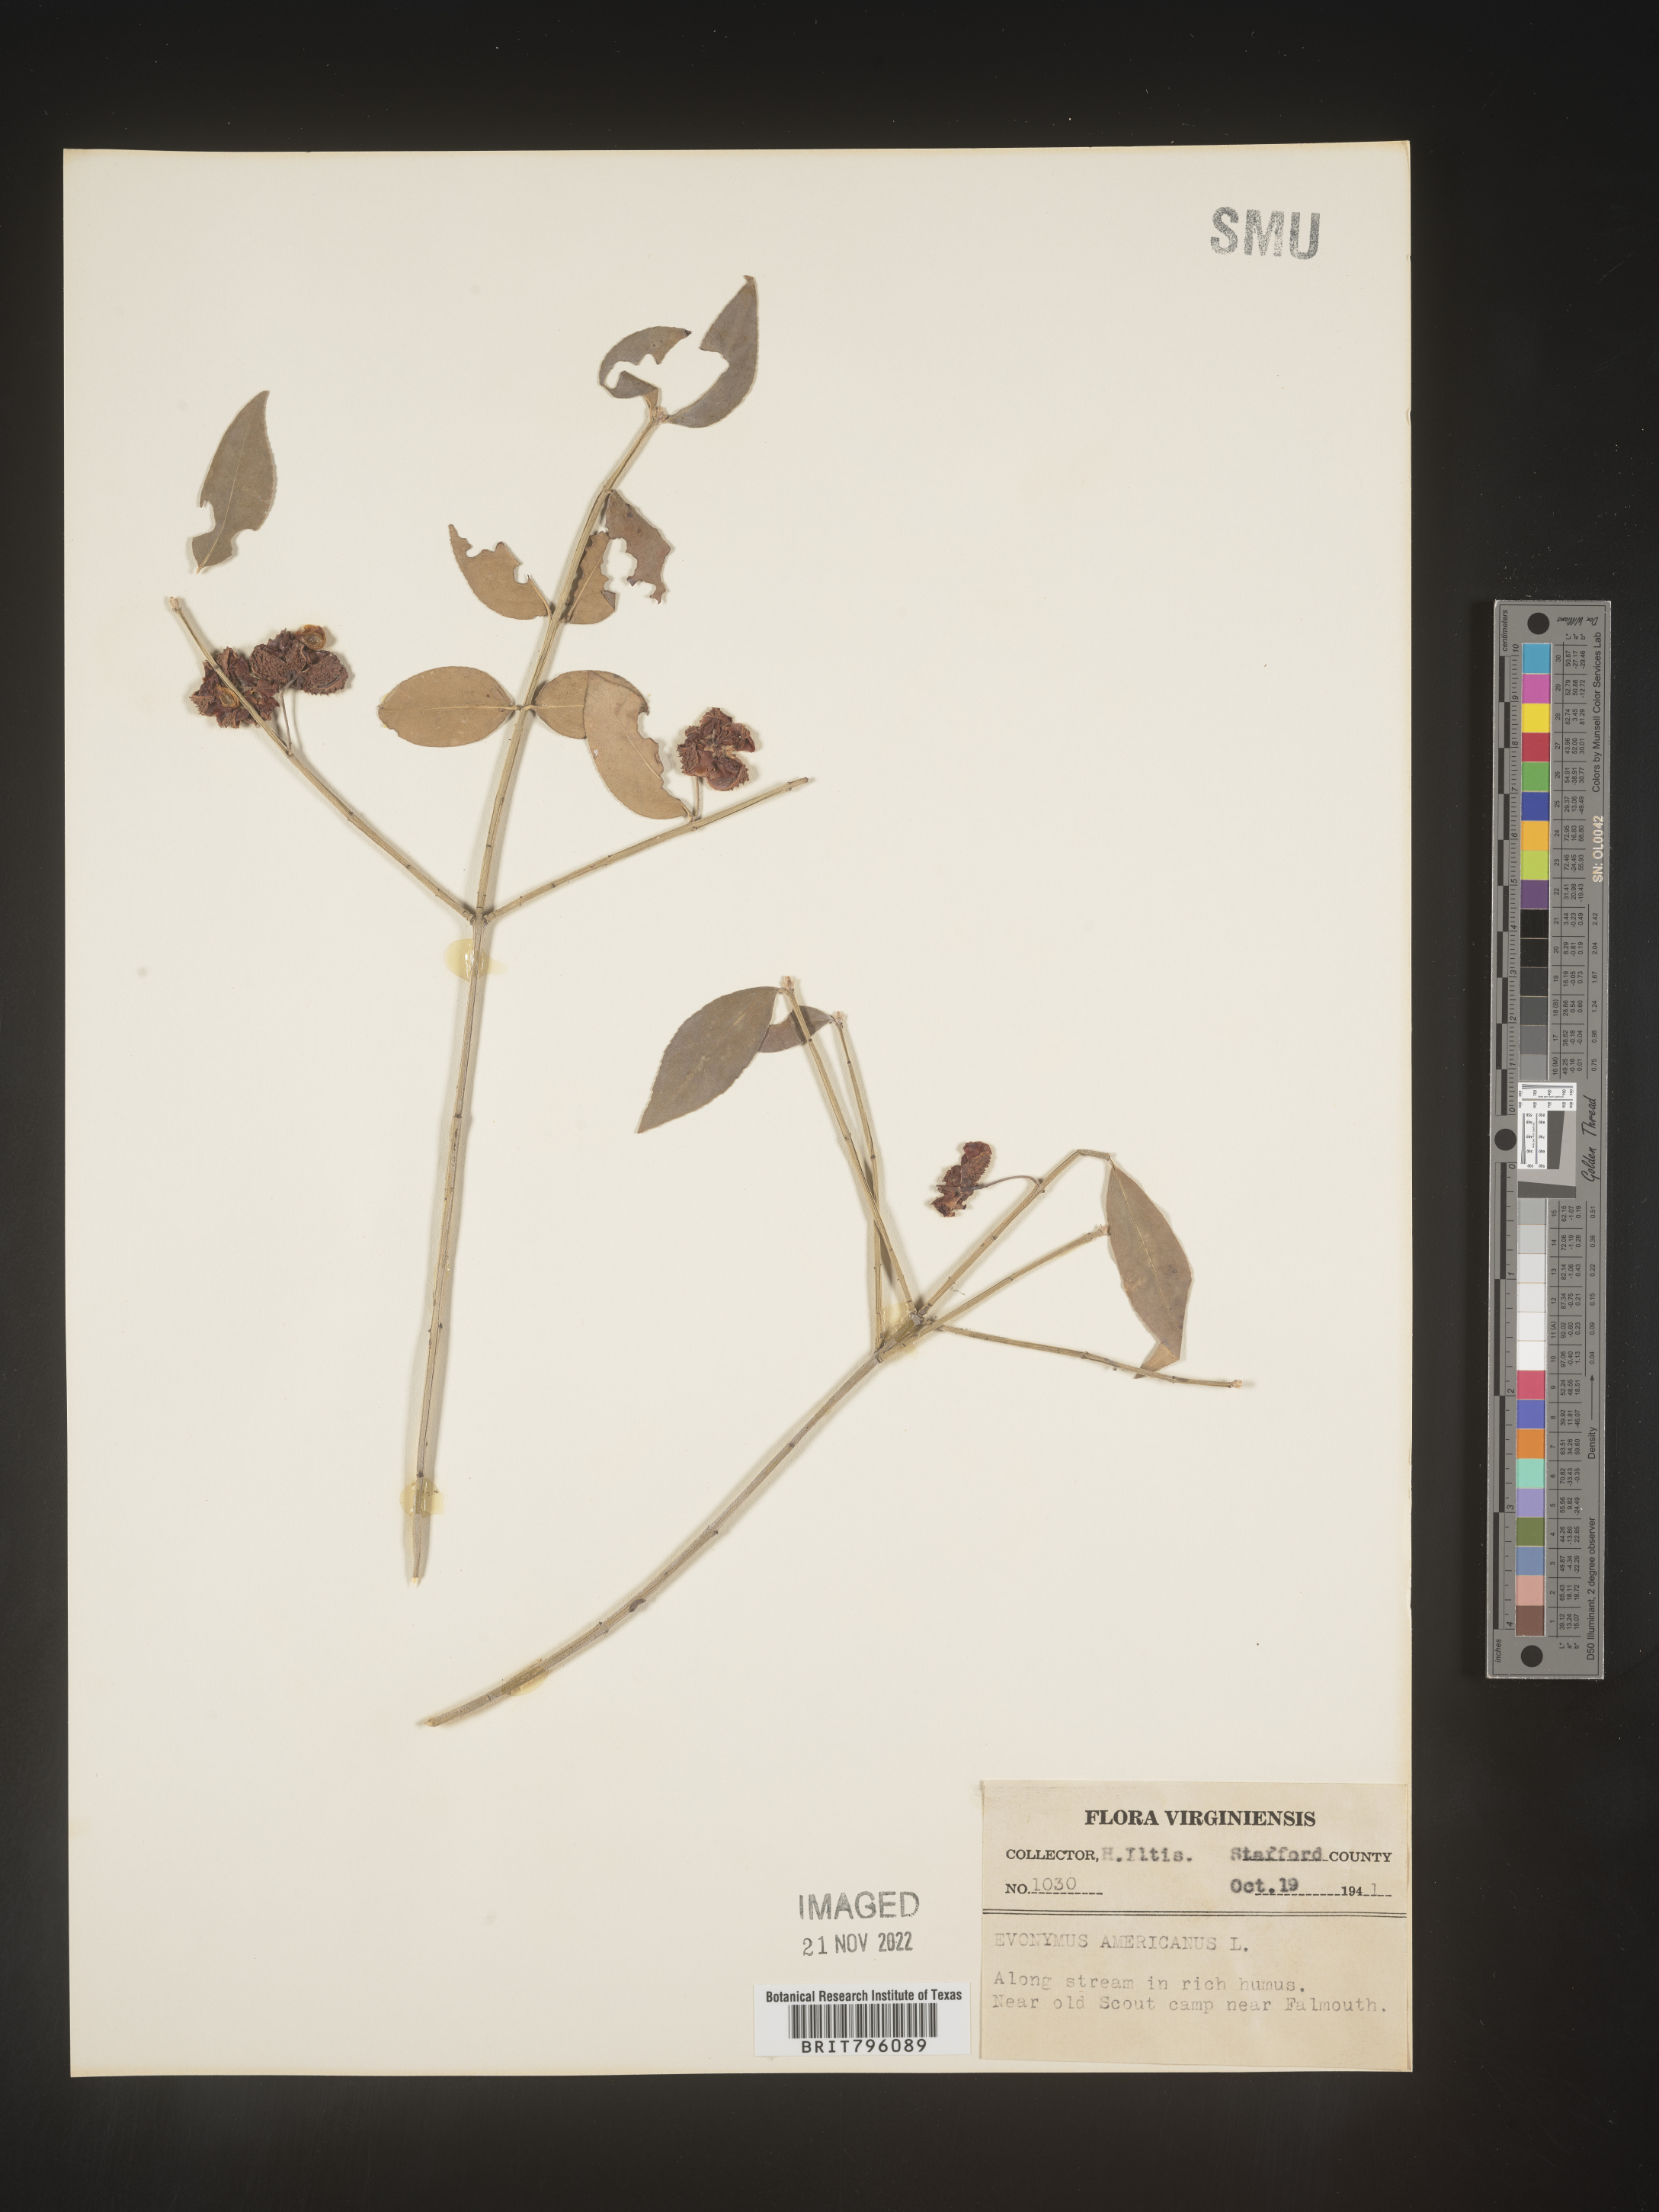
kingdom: Plantae
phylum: Tracheophyta
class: Magnoliopsida
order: Celastrales
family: Celastraceae
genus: Euonymus
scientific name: Euonymus americanus
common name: Bursting-heart
